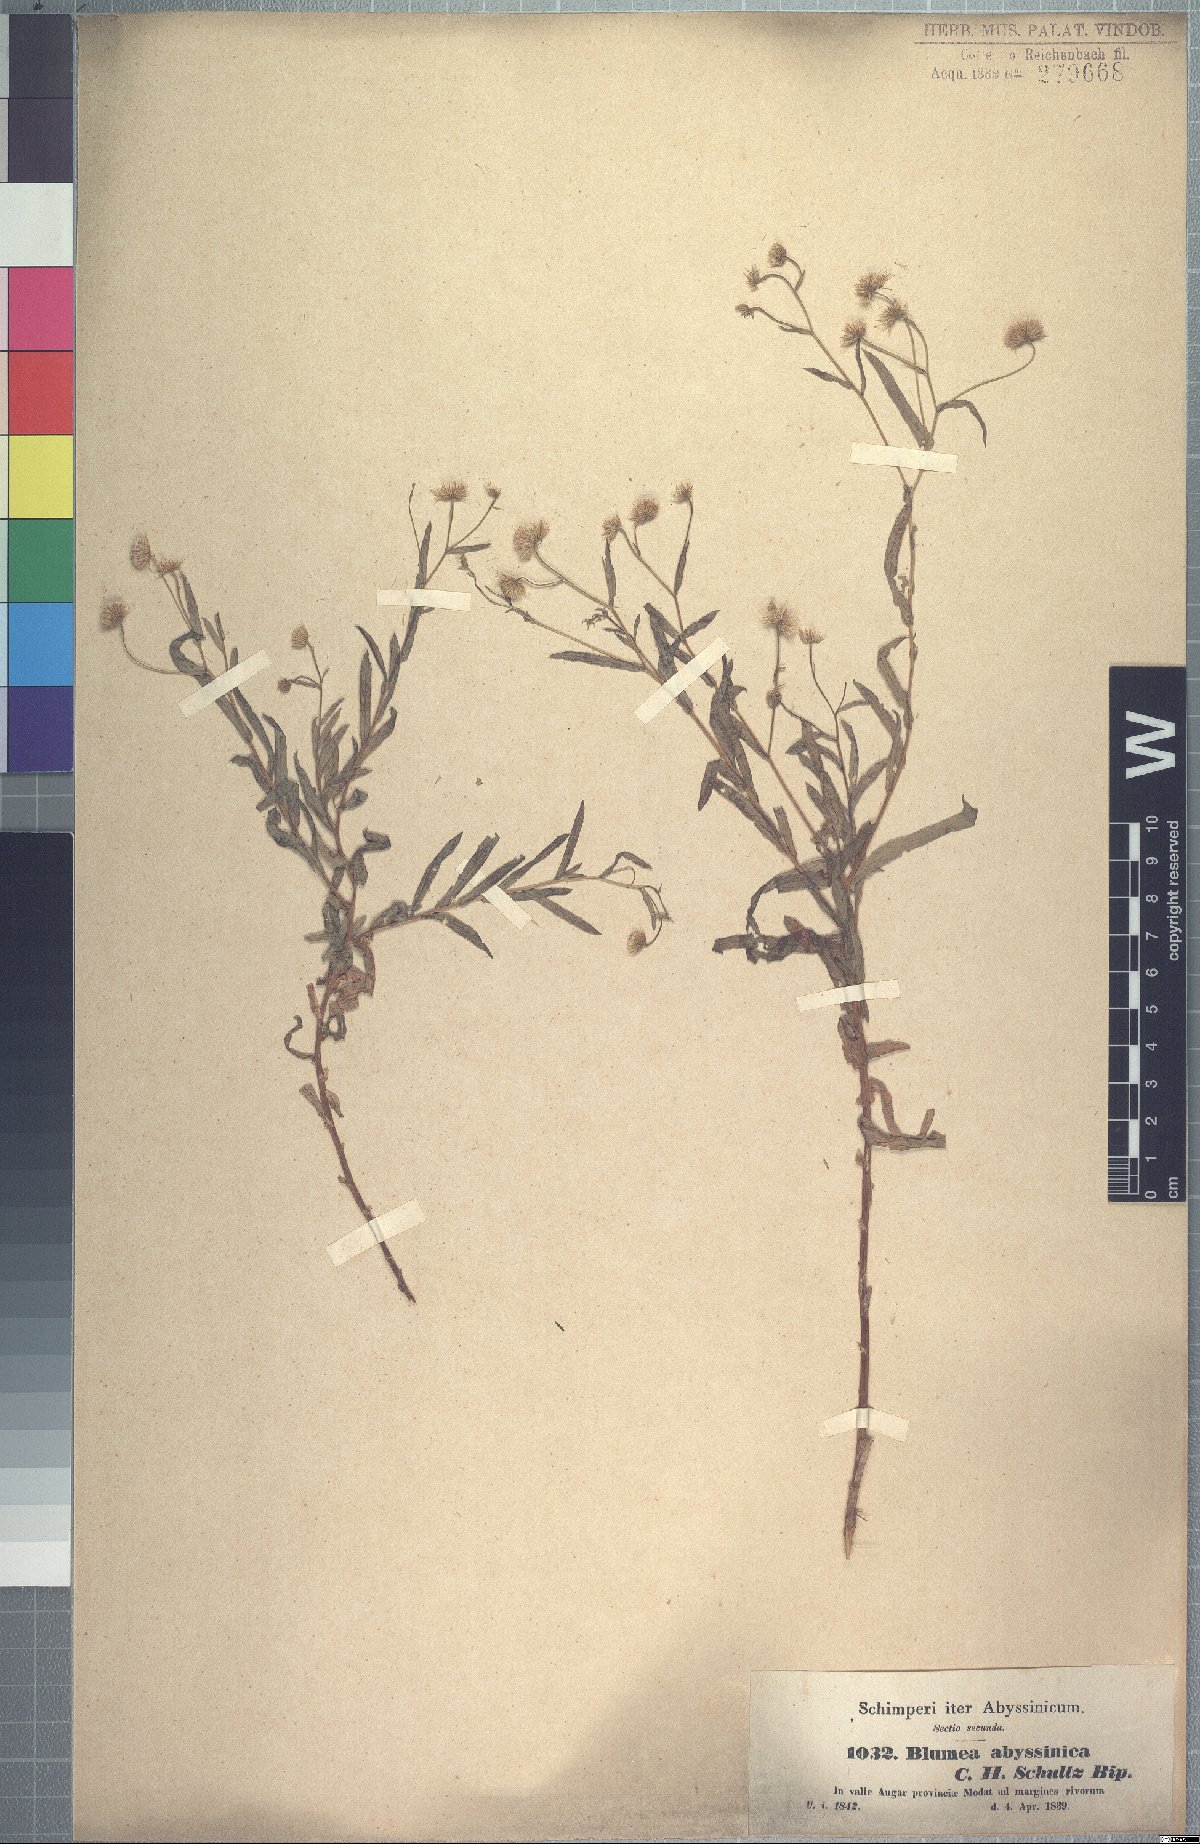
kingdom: Plantae
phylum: Tracheophyta
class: Magnoliopsida
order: Asterales
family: Asteraceae
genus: Doellia
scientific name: Doellia bovei
